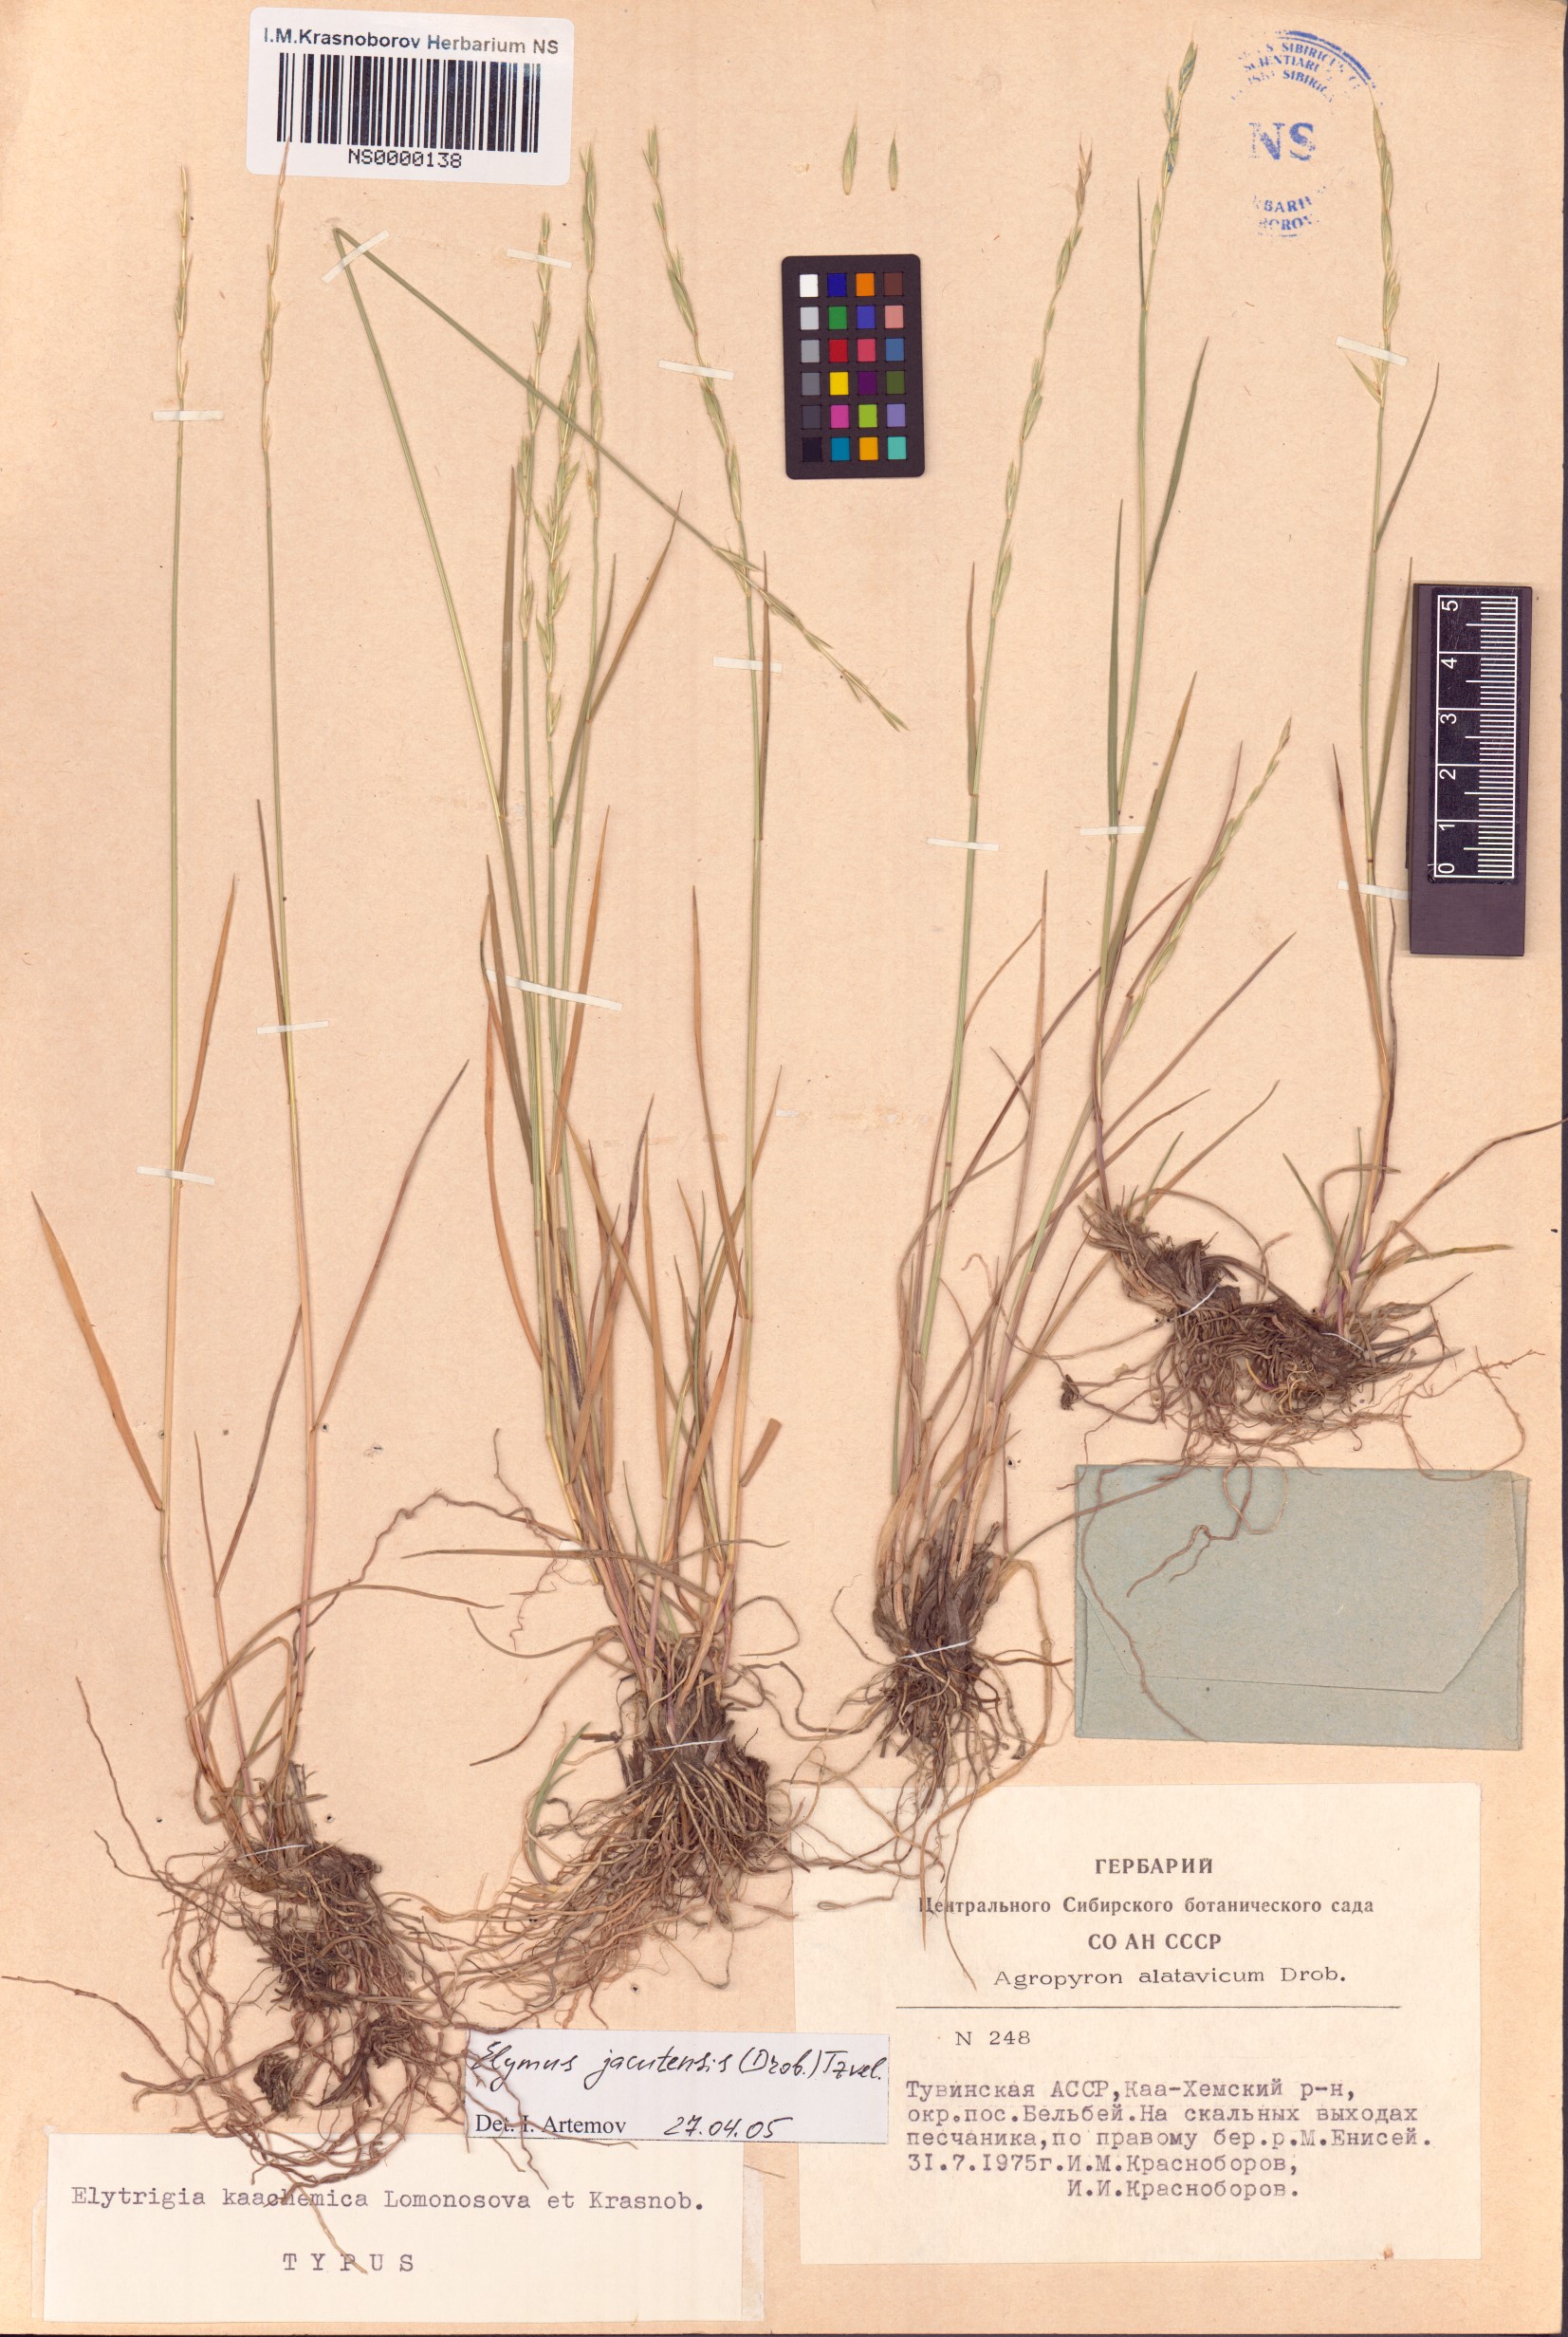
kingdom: Plantae
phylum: Tracheophyta
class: Liliopsida
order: Poales
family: Poaceae
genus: Elymus
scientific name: Elymus jacutensis
